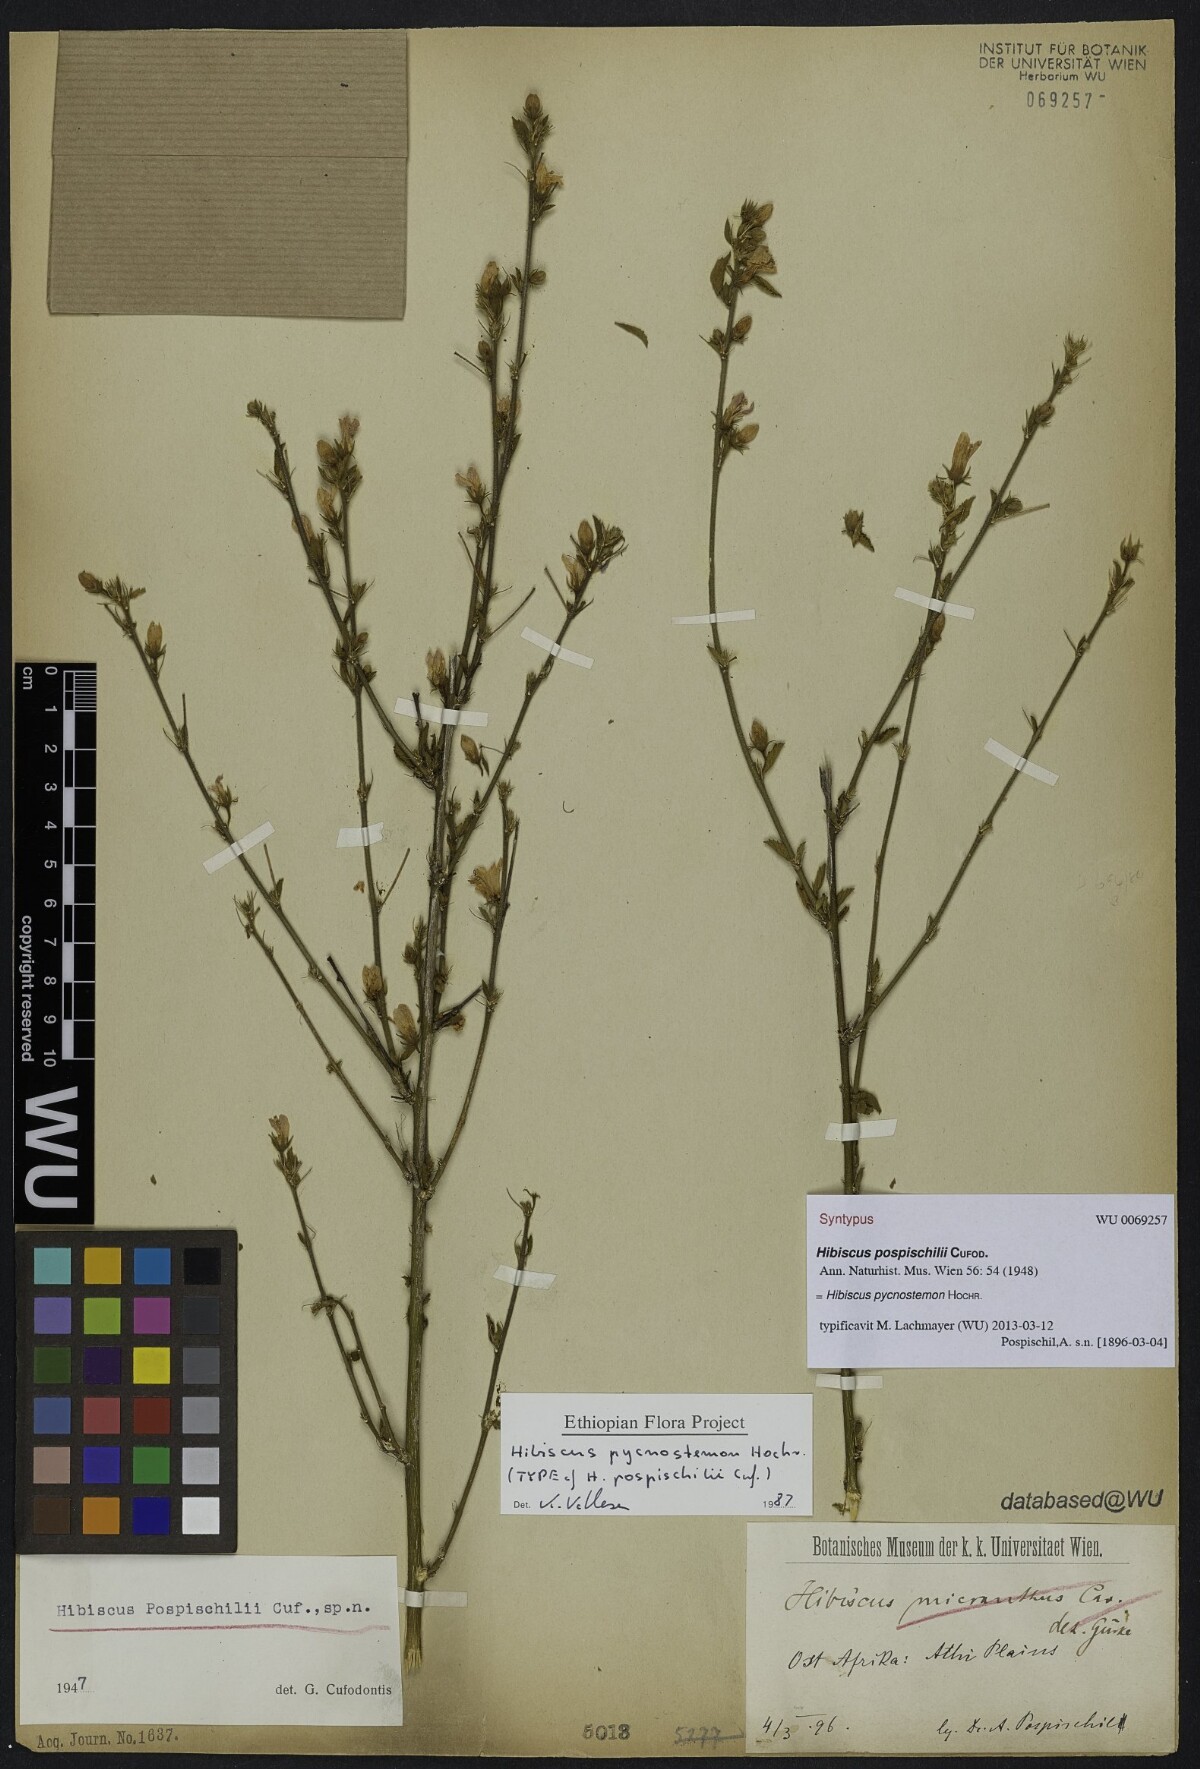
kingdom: Plantae
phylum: Tracheophyta
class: Magnoliopsida
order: Malvales
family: Malvaceae
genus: Hibiscus
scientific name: Hibiscus pycnostemon
